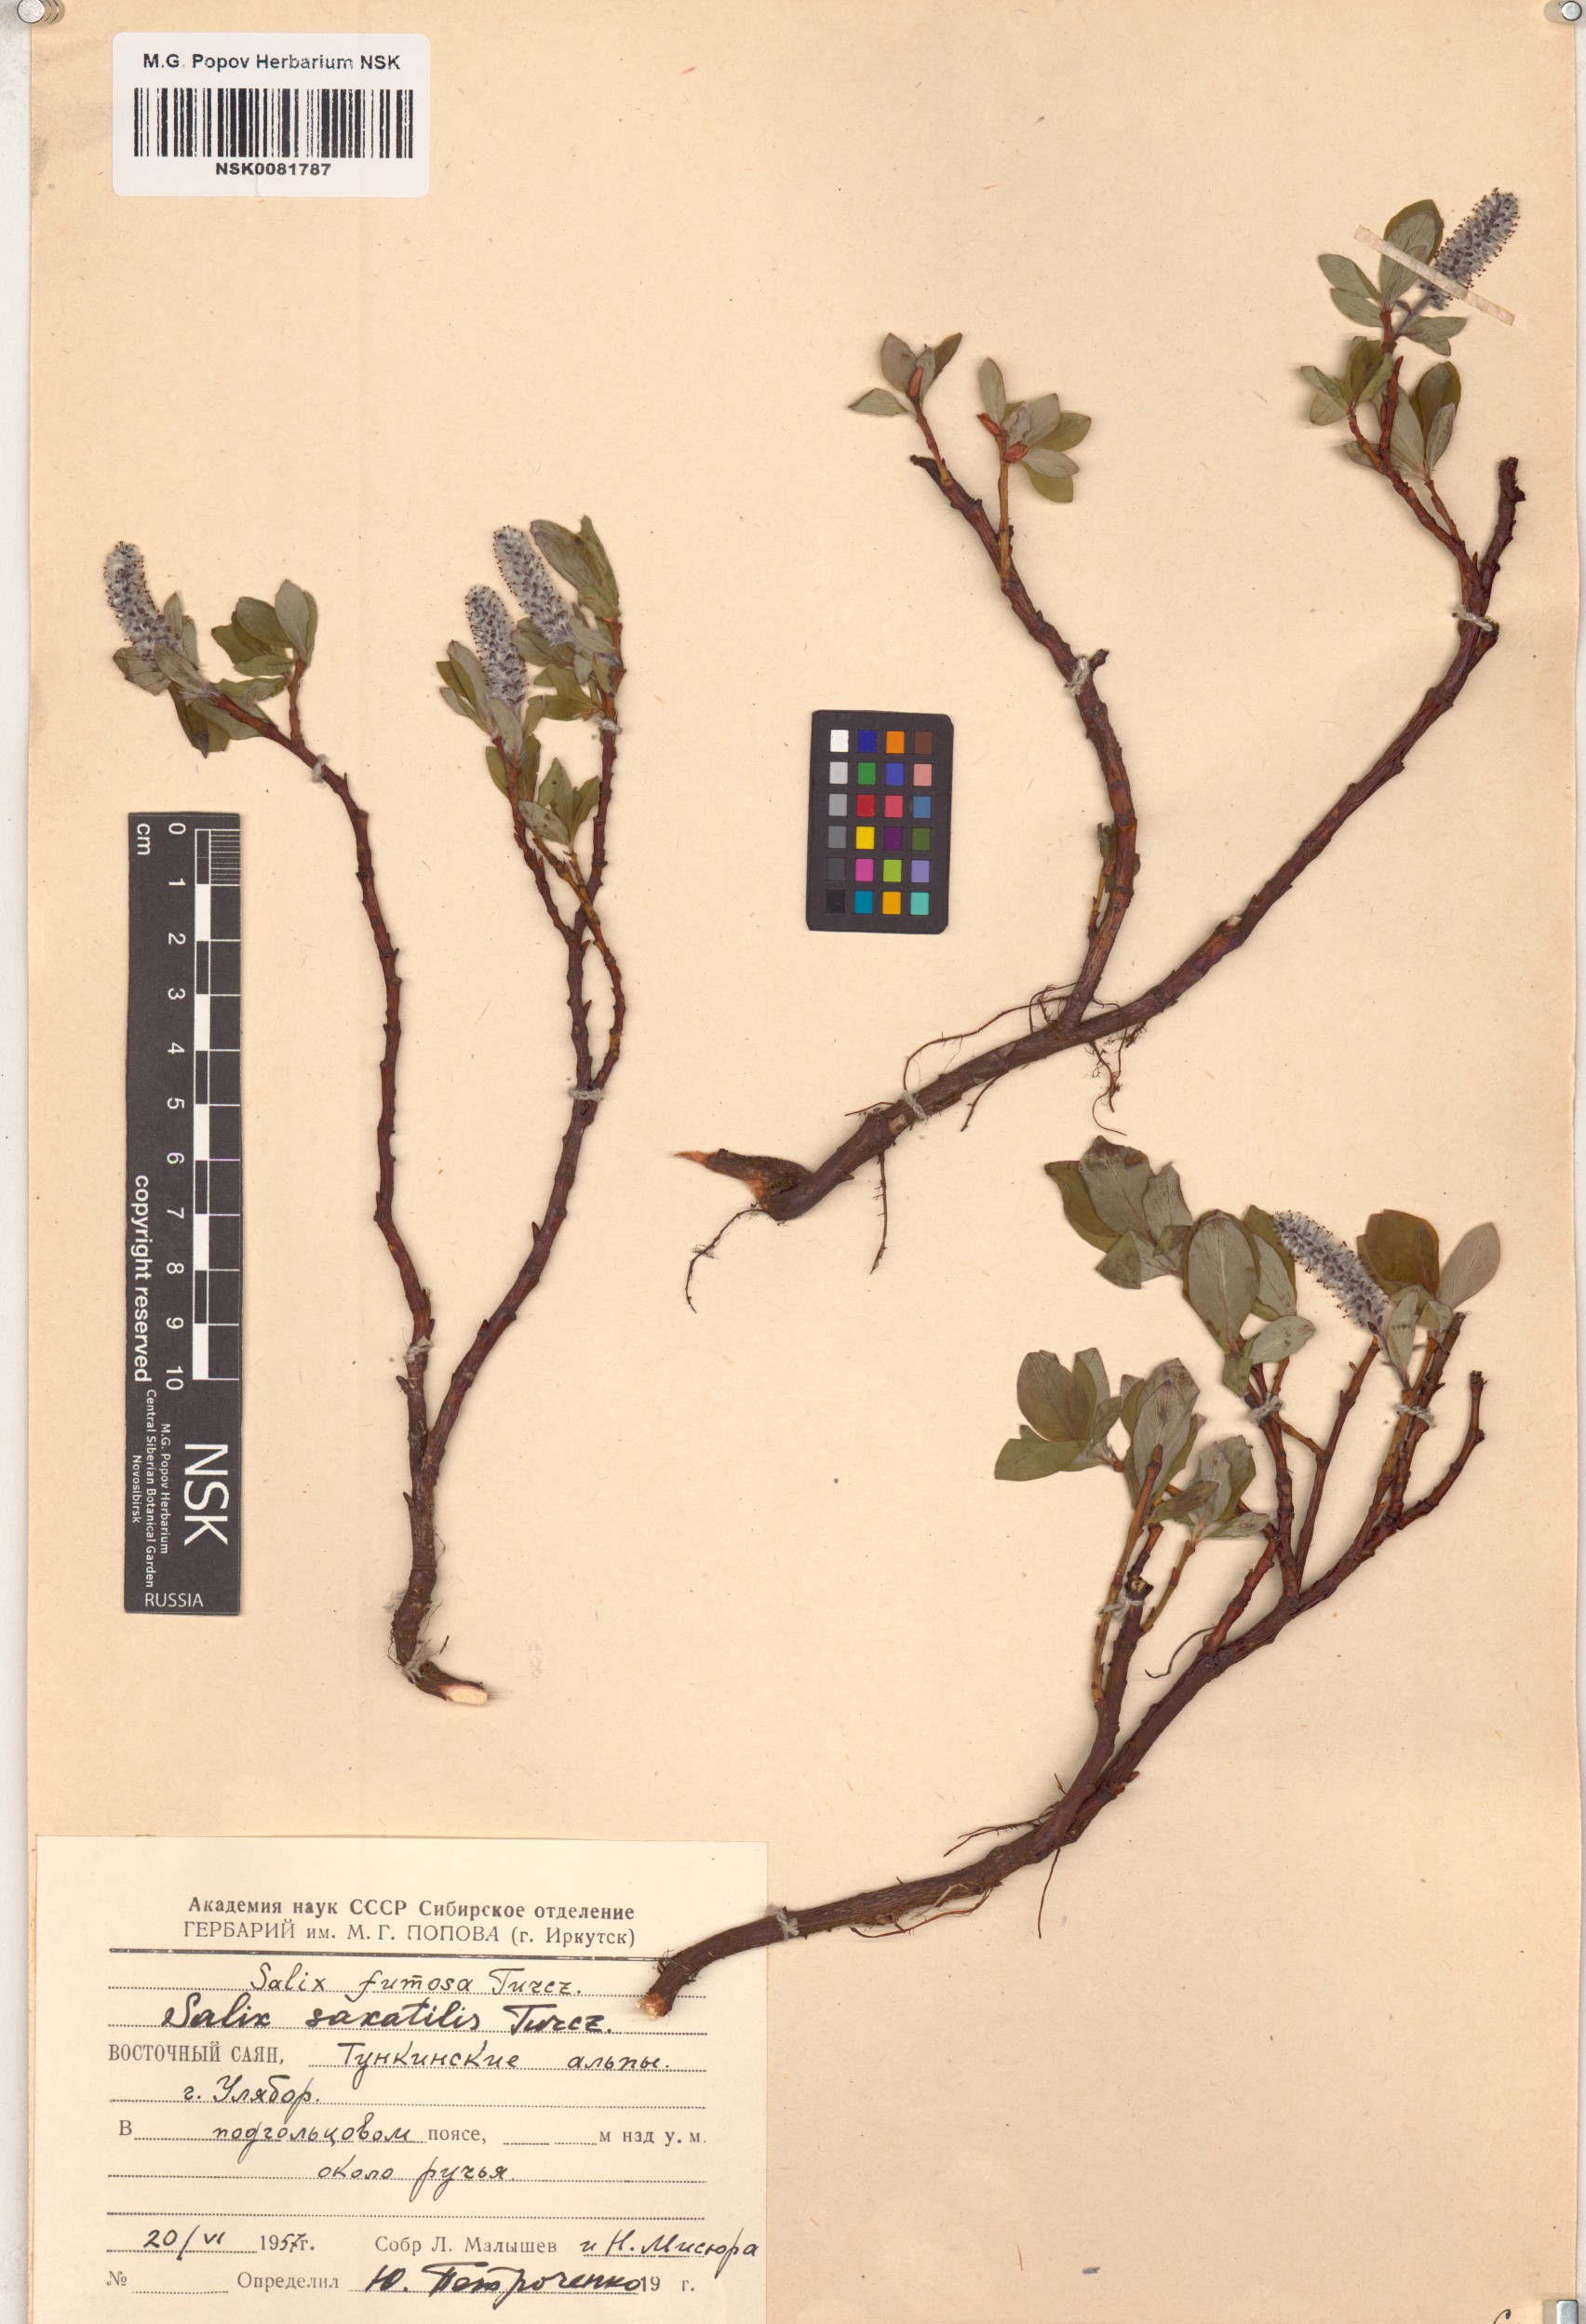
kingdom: Plantae
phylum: Tracheophyta
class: Magnoliopsida
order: Malpighiales
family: Salicaceae
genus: Salix
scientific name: Salix saxatilis
